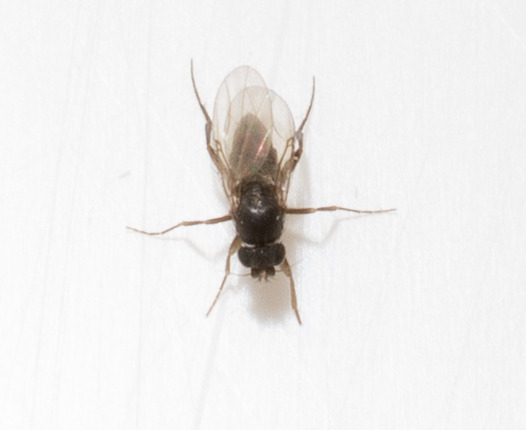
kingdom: Animalia
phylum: Arthropoda
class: Insecta
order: Diptera
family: Phoridae
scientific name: Phoridae
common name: Pukkelfluer
